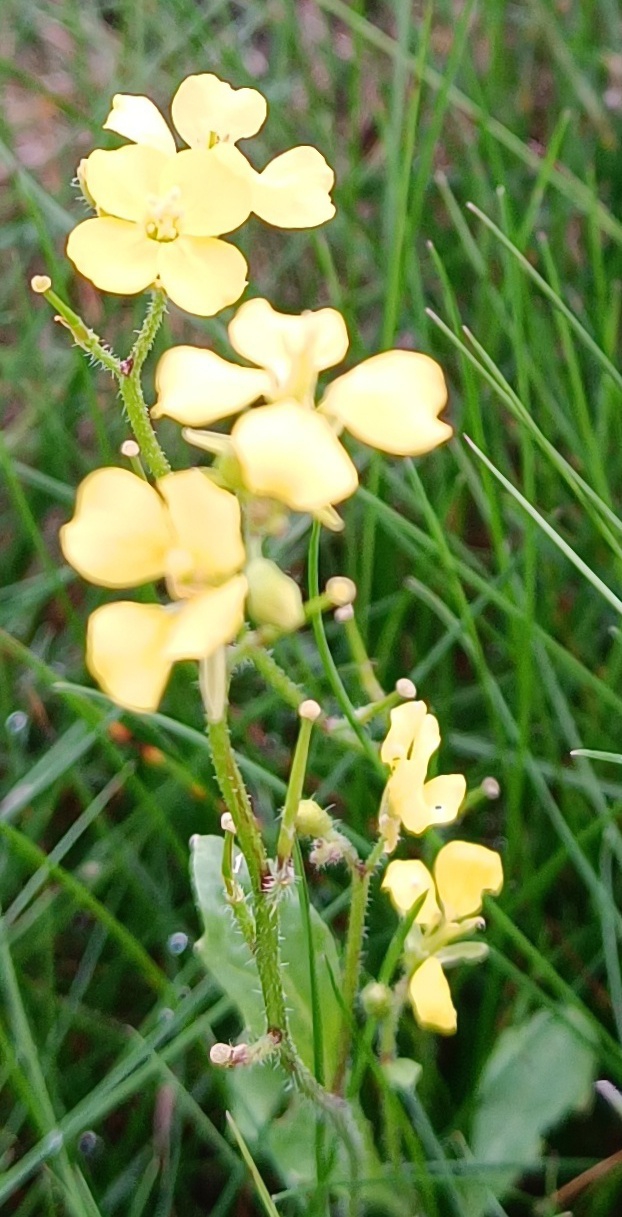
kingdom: Plantae
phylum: Tracheophyta
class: Magnoliopsida
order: Brassicales
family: Brassicaceae
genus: Sinapis
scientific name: Sinapis arvensis
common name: Ager-sennep
